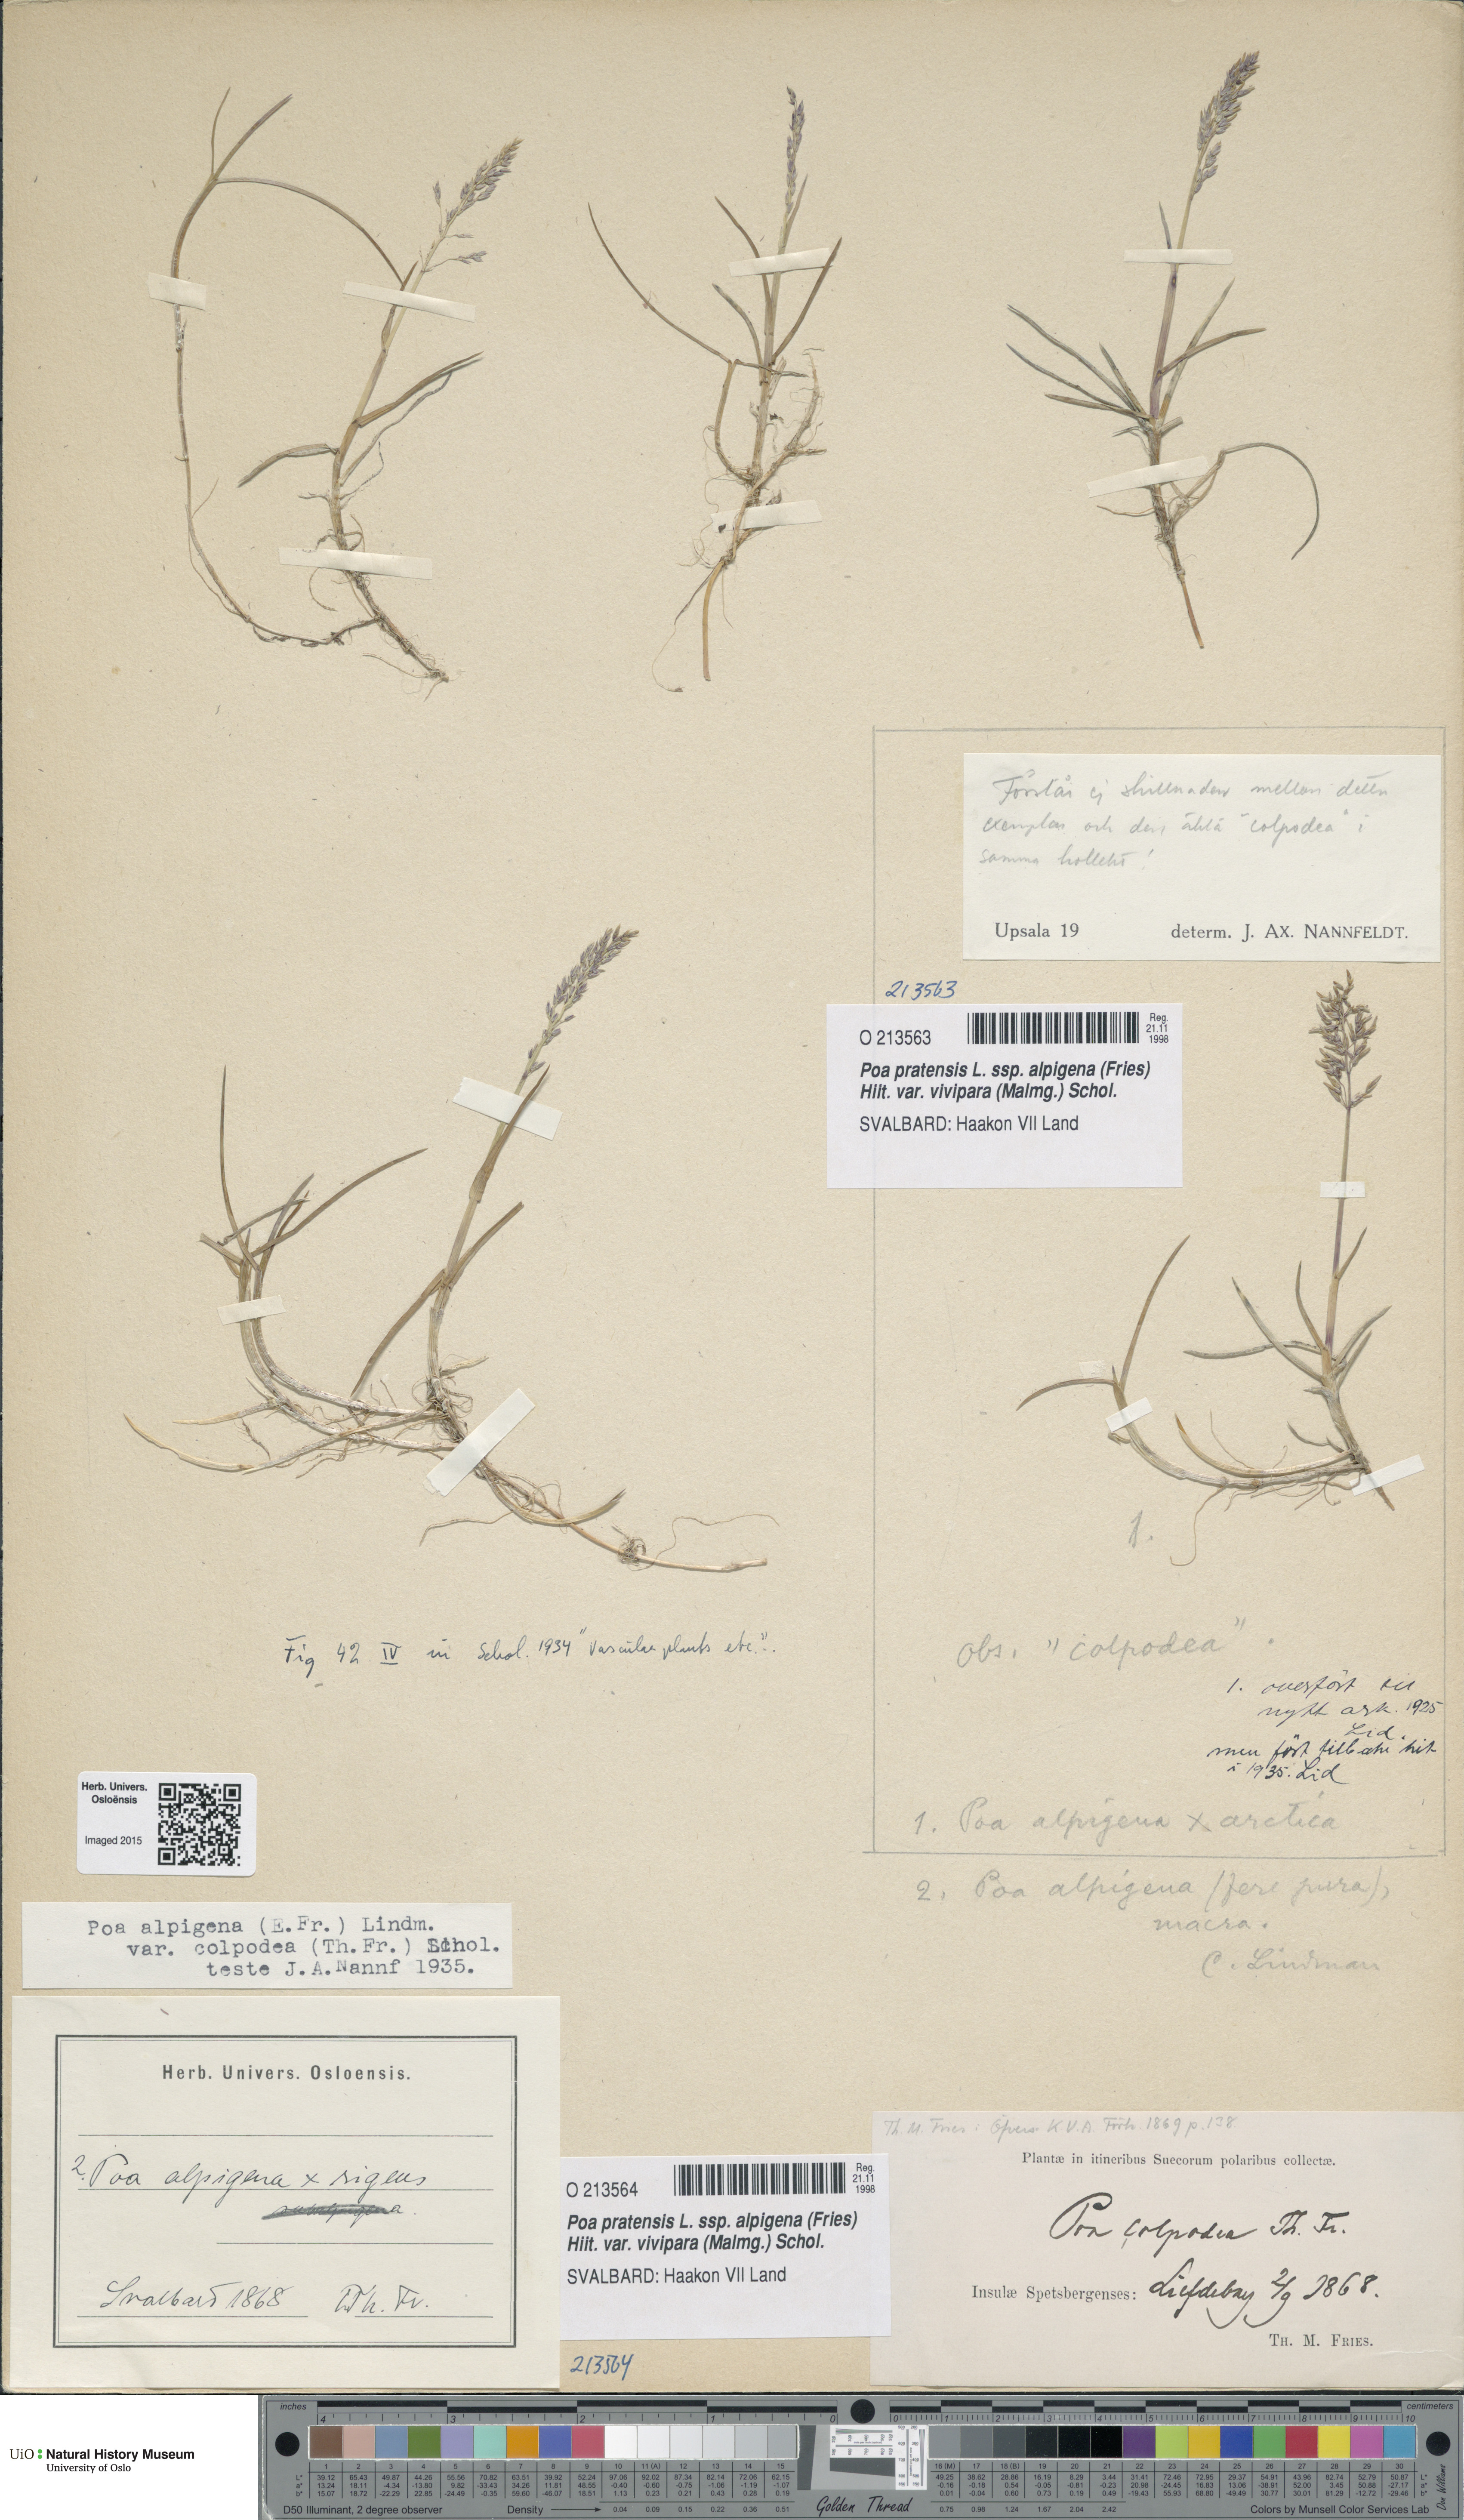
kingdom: Plantae
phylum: Tracheophyta
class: Liliopsida
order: Poales
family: Poaceae
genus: Poa
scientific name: Poa colpodea
